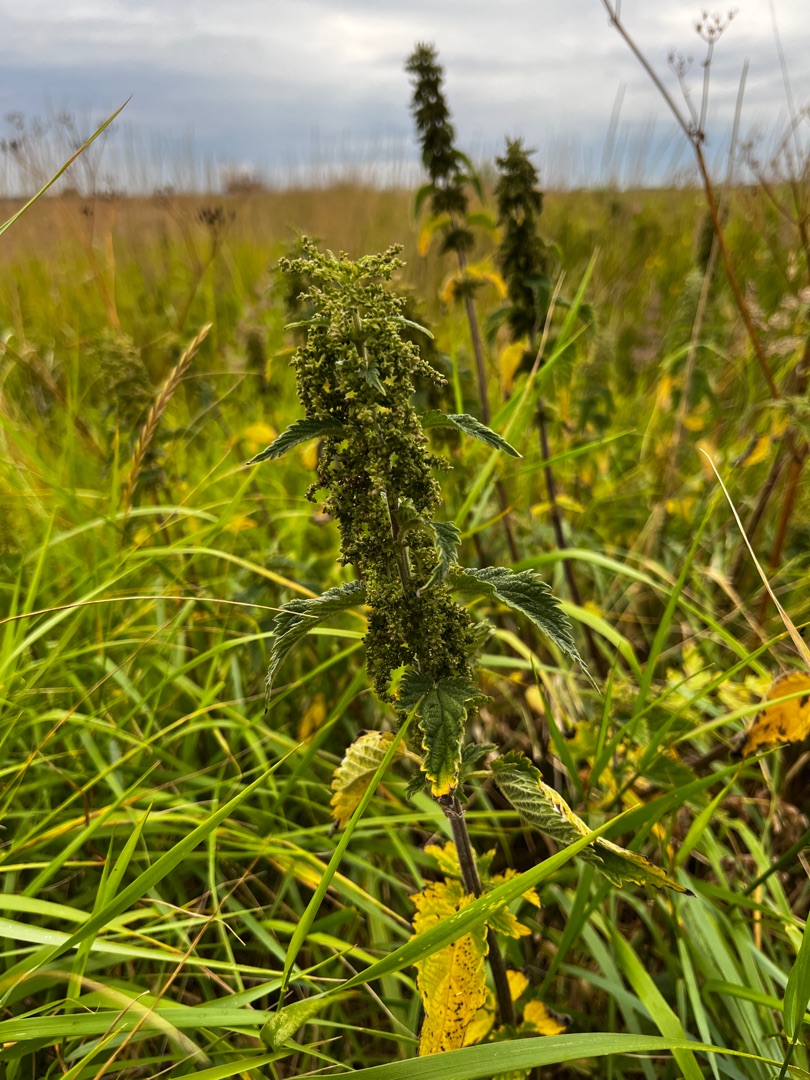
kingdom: Plantae
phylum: Tracheophyta
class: Magnoliopsida
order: Rosales
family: Urticaceae
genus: Urtica
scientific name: Urtica dioica
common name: Stor nælde
